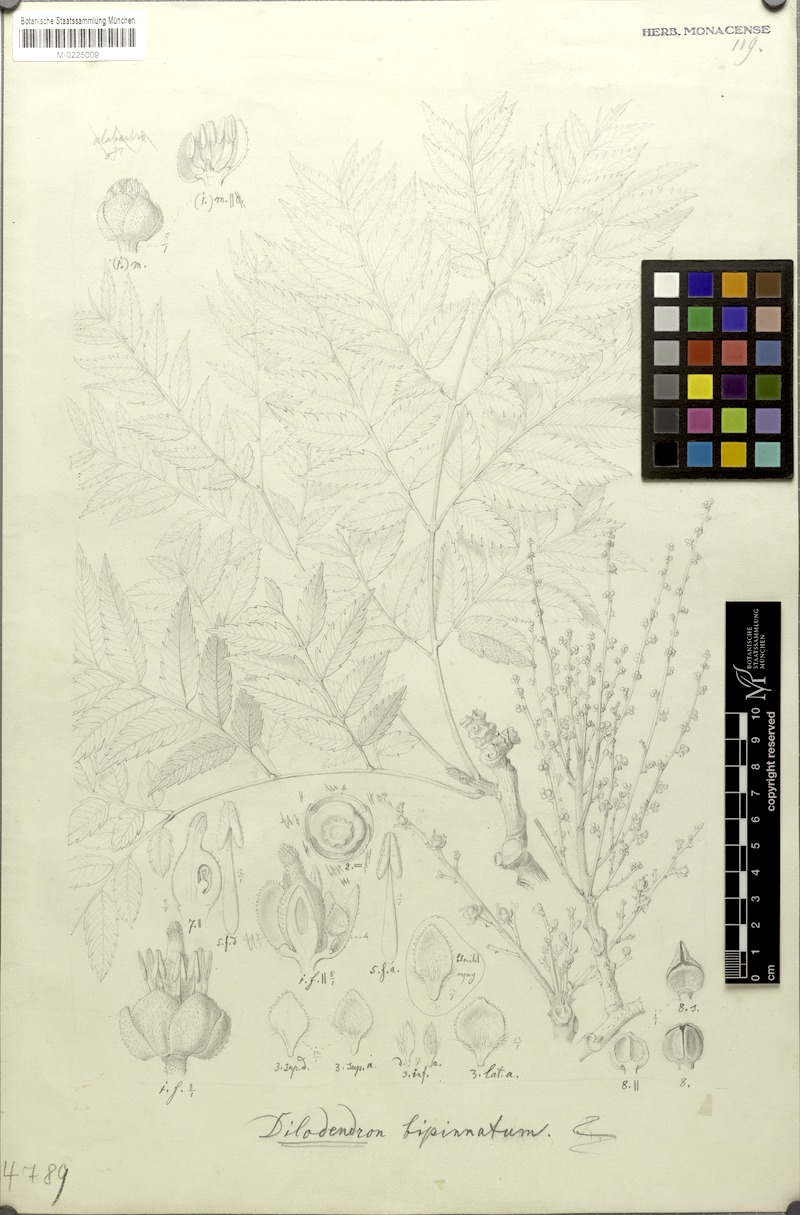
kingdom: Plantae
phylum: Tracheophyta
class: Magnoliopsida
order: Sapindales
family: Sapindaceae
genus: Dilodendron
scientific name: Dilodendron bipinnatum
